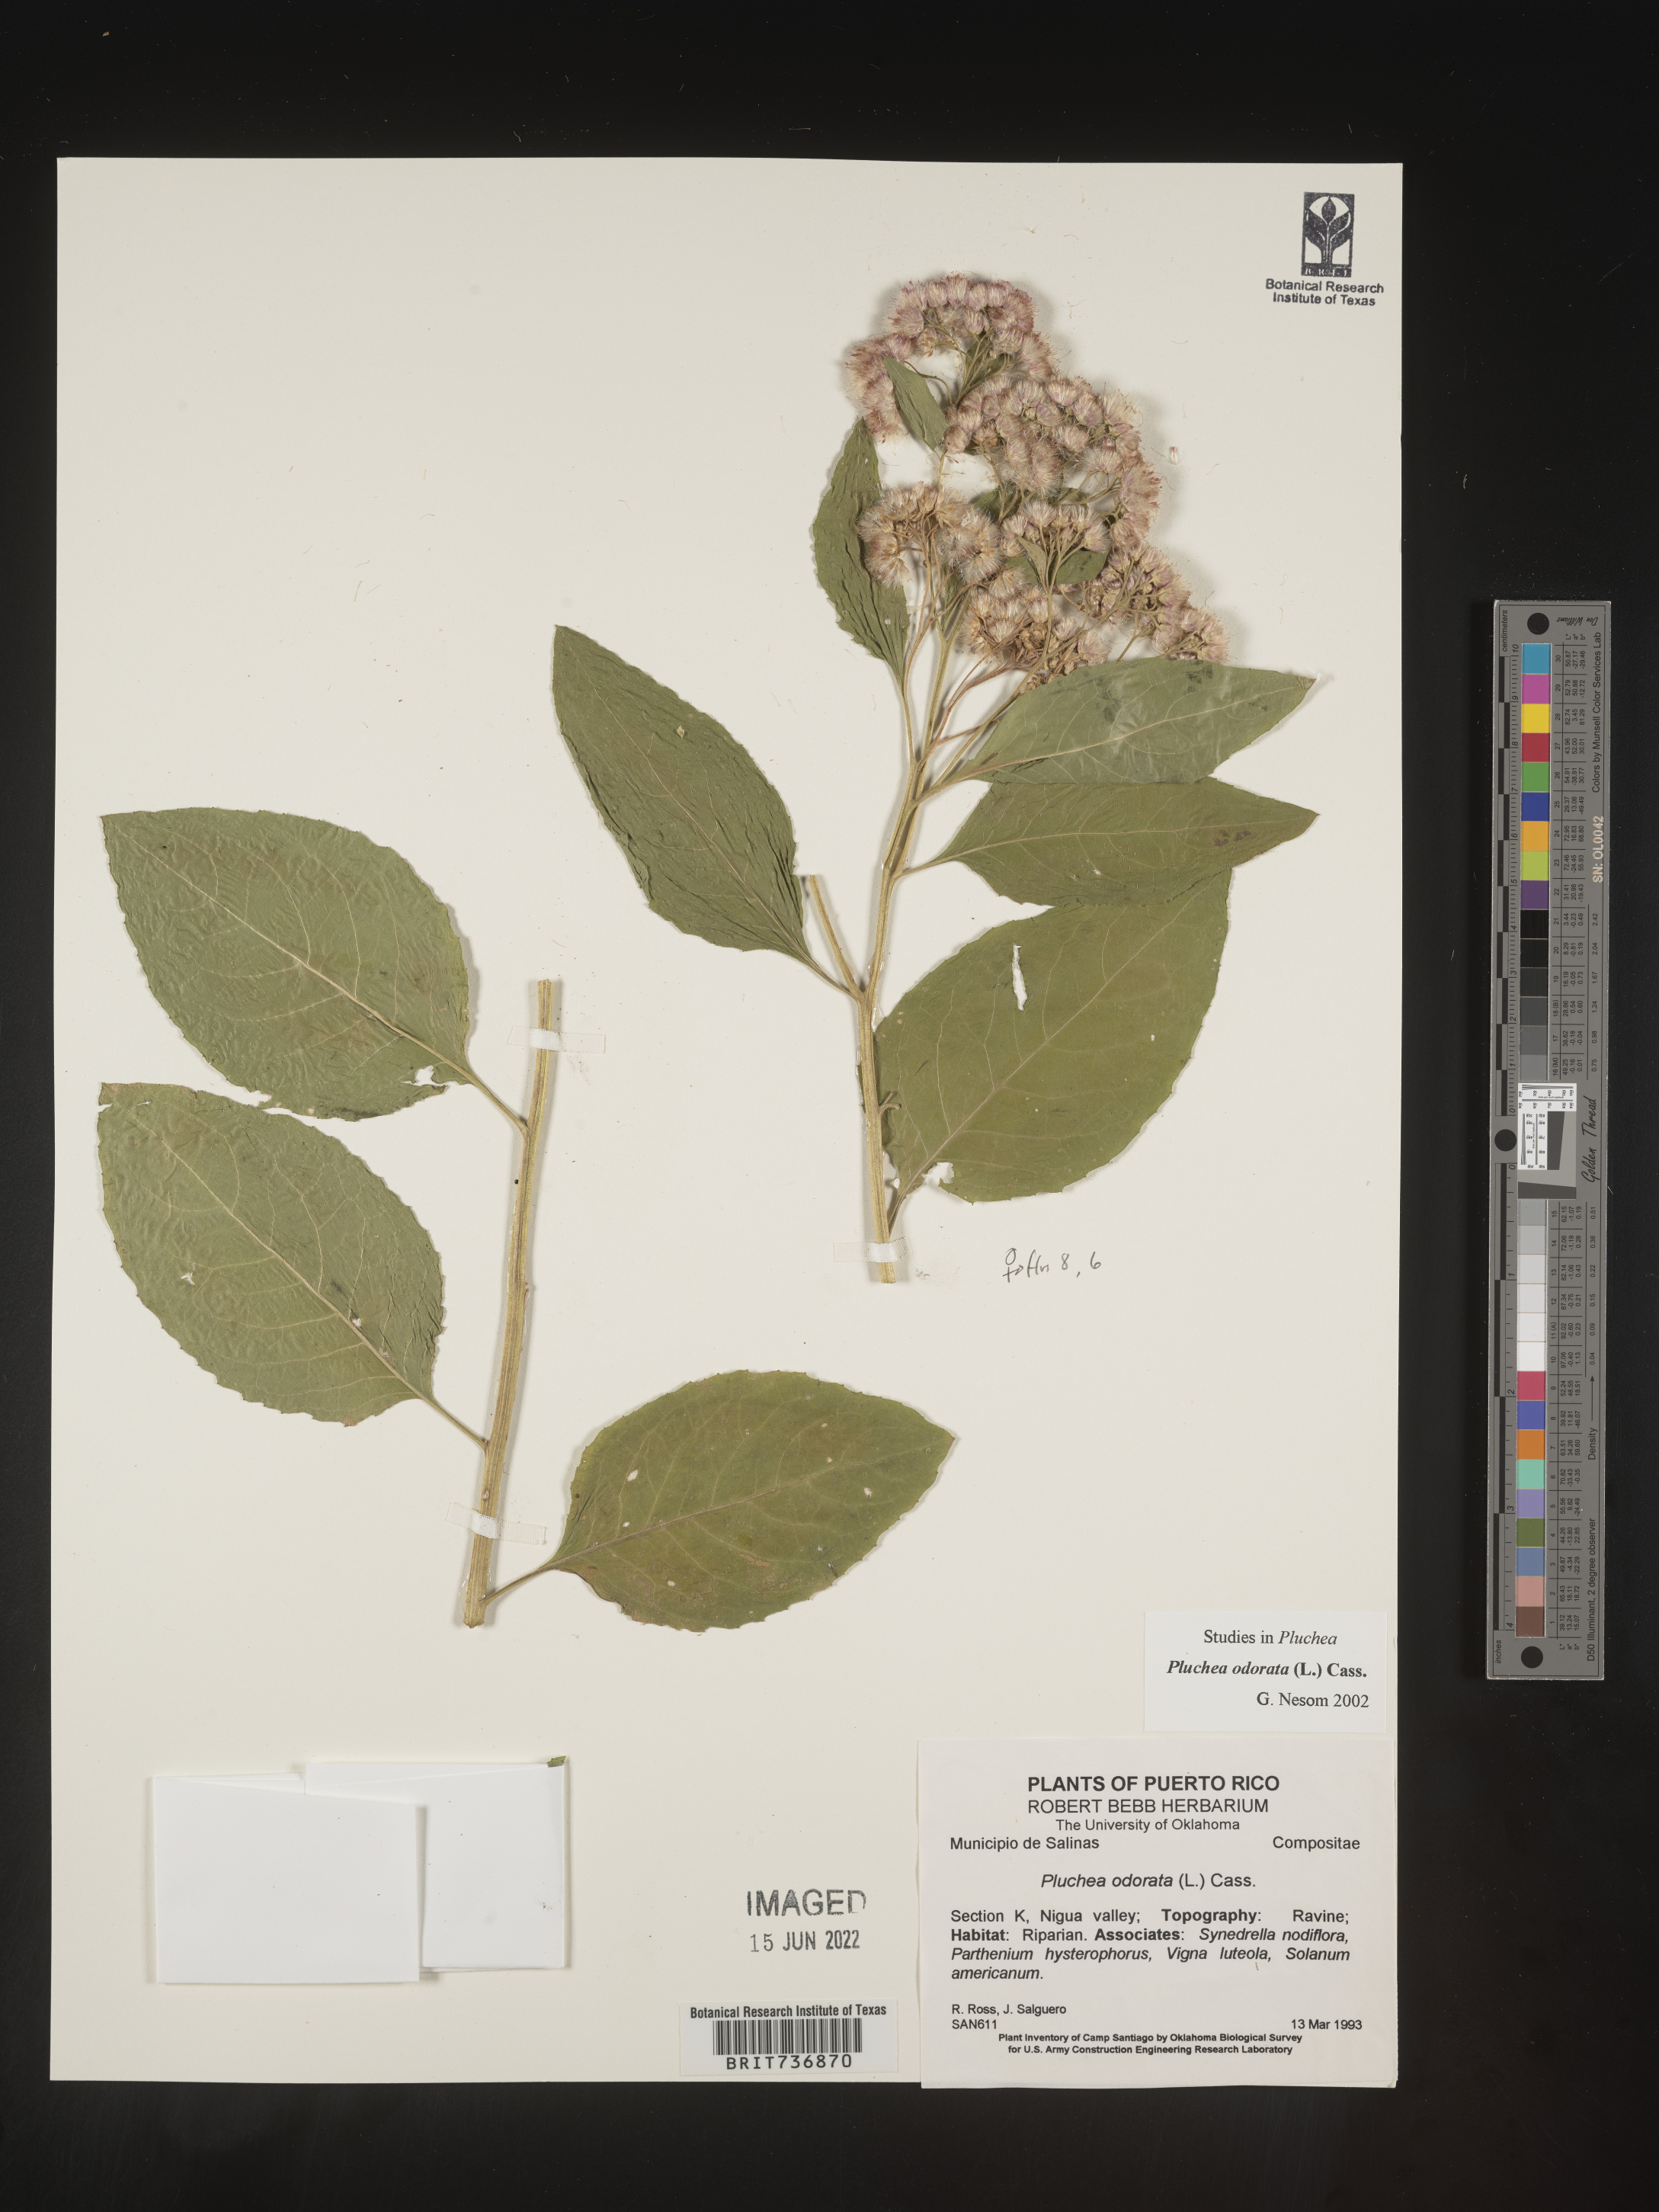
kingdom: Plantae
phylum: Tracheophyta
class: Magnoliopsida
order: Asterales
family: Asteraceae
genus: Pluchea
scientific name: Pluchea
